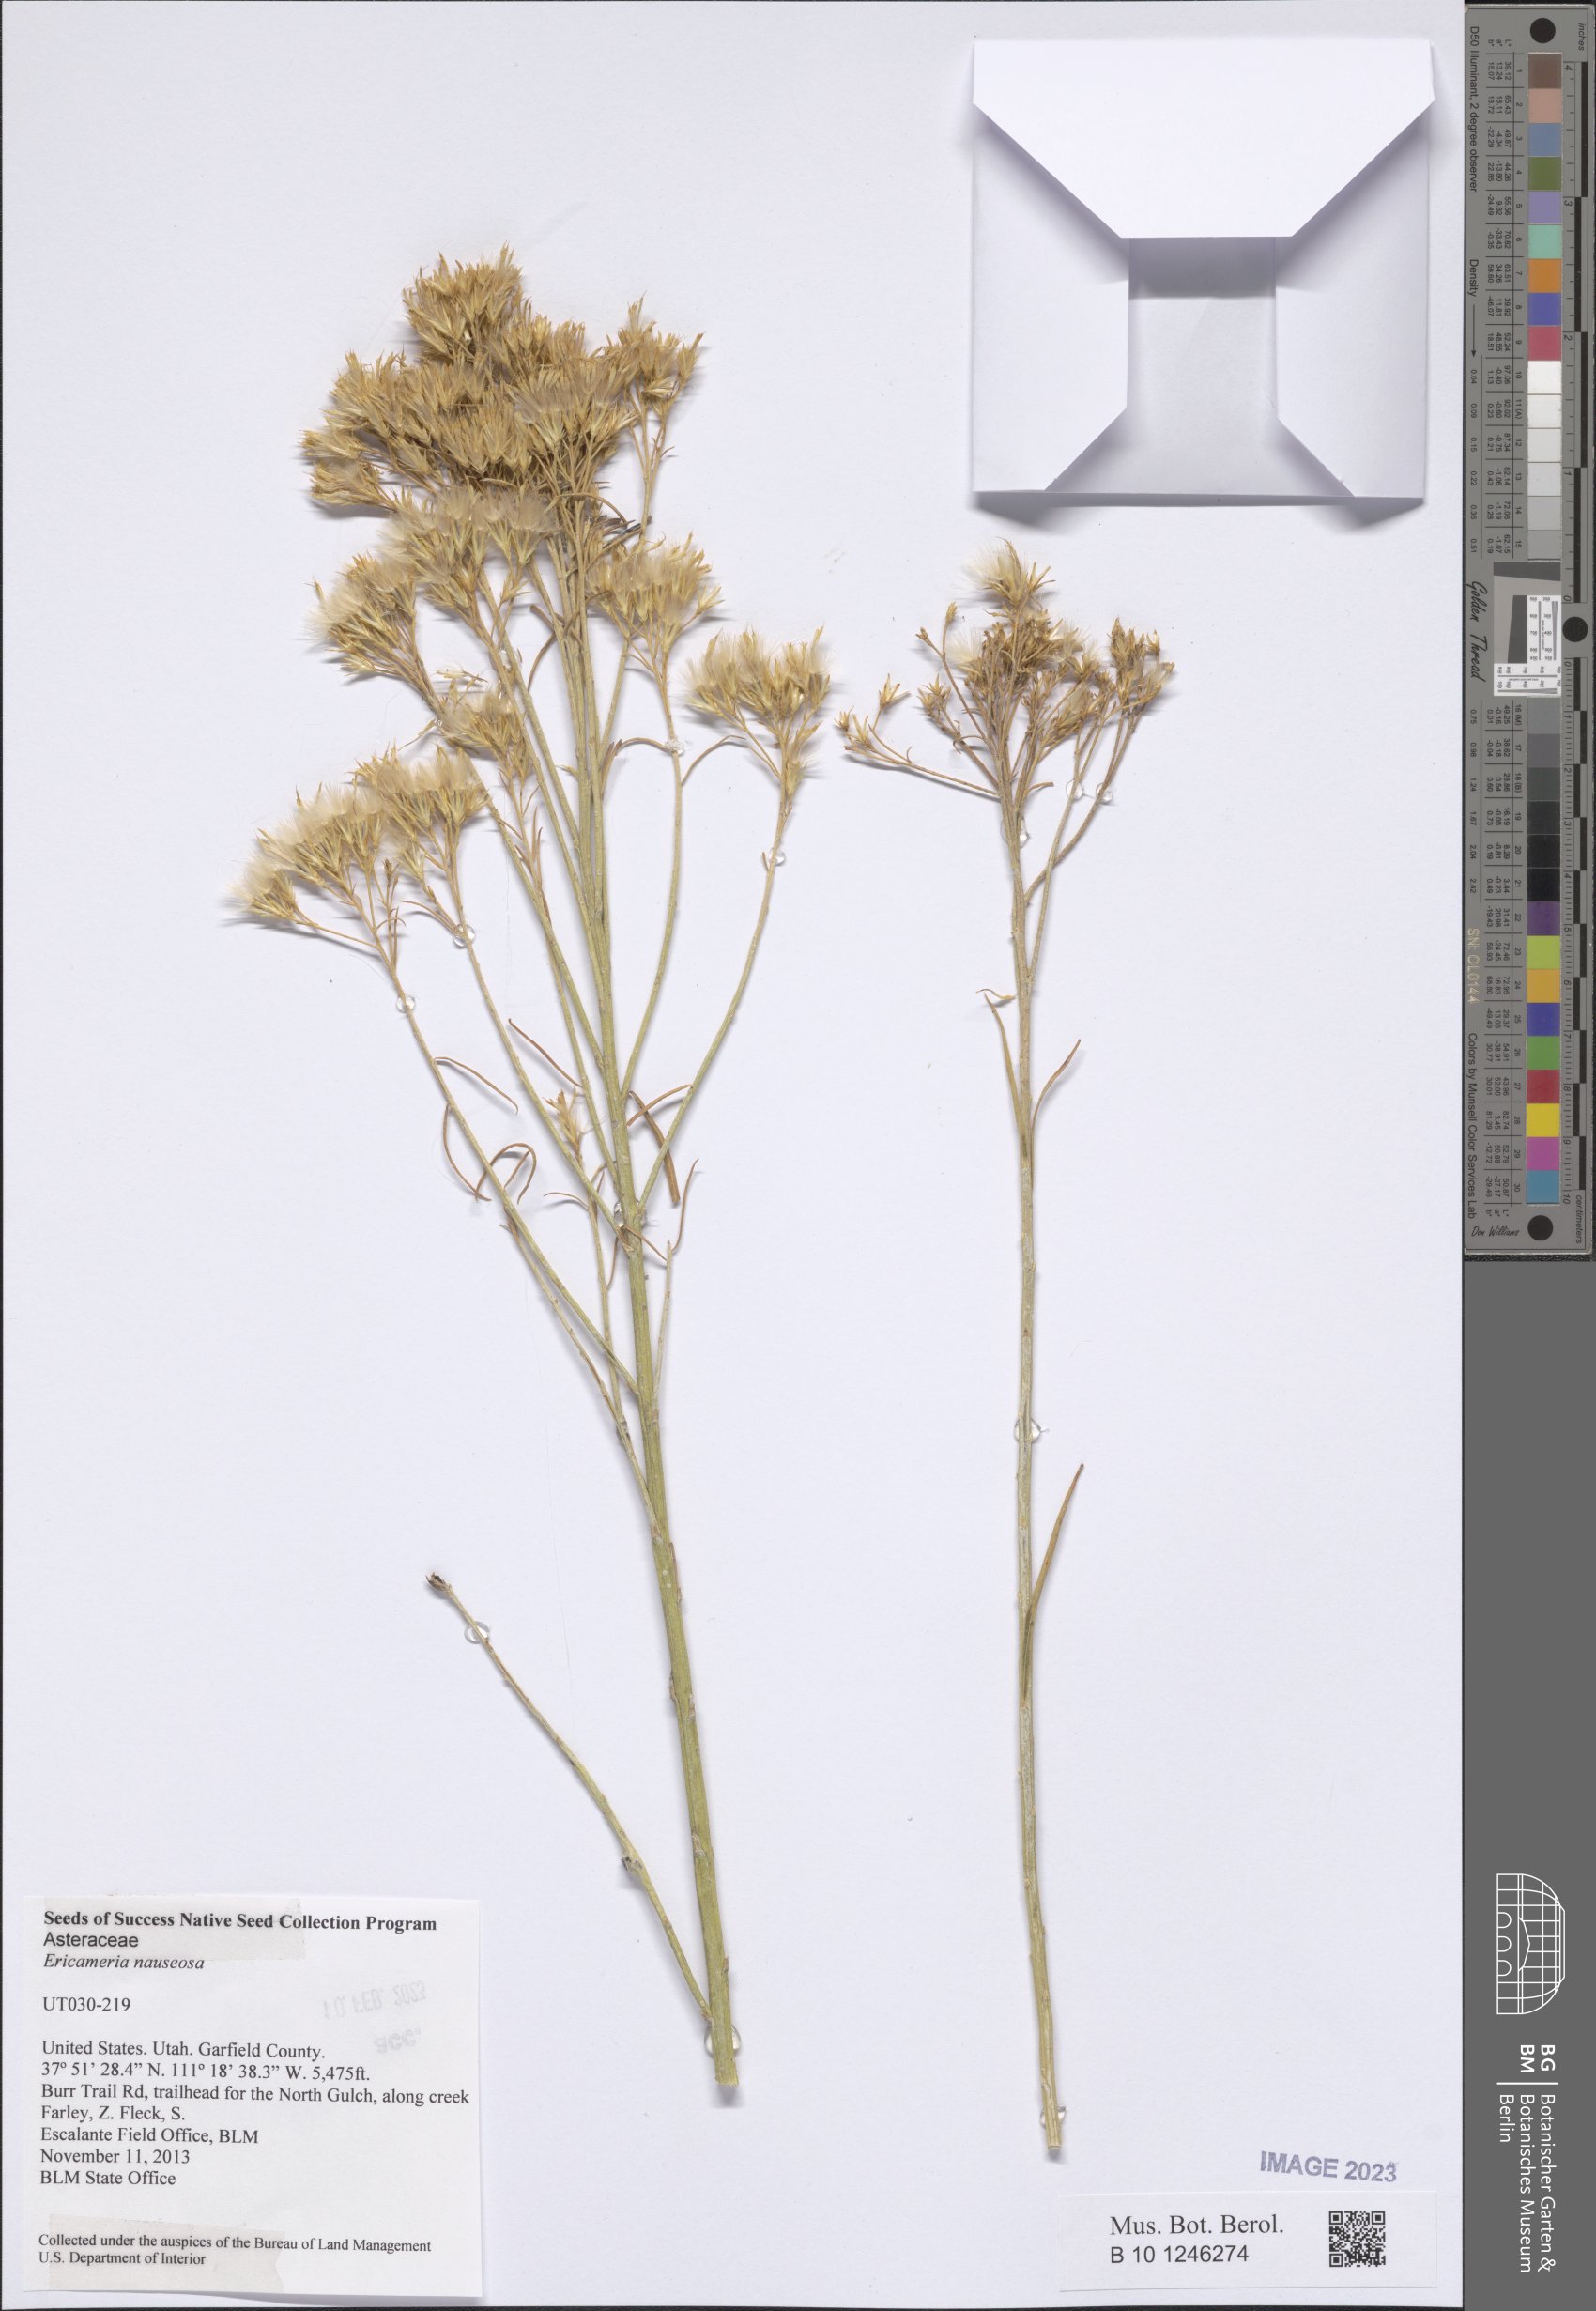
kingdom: Plantae
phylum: Tracheophyta
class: Magnoliopsida
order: Asterales
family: Asteraceae
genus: Ericameria
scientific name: Ericameria nauseosa
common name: Rubber rabbitbrush
